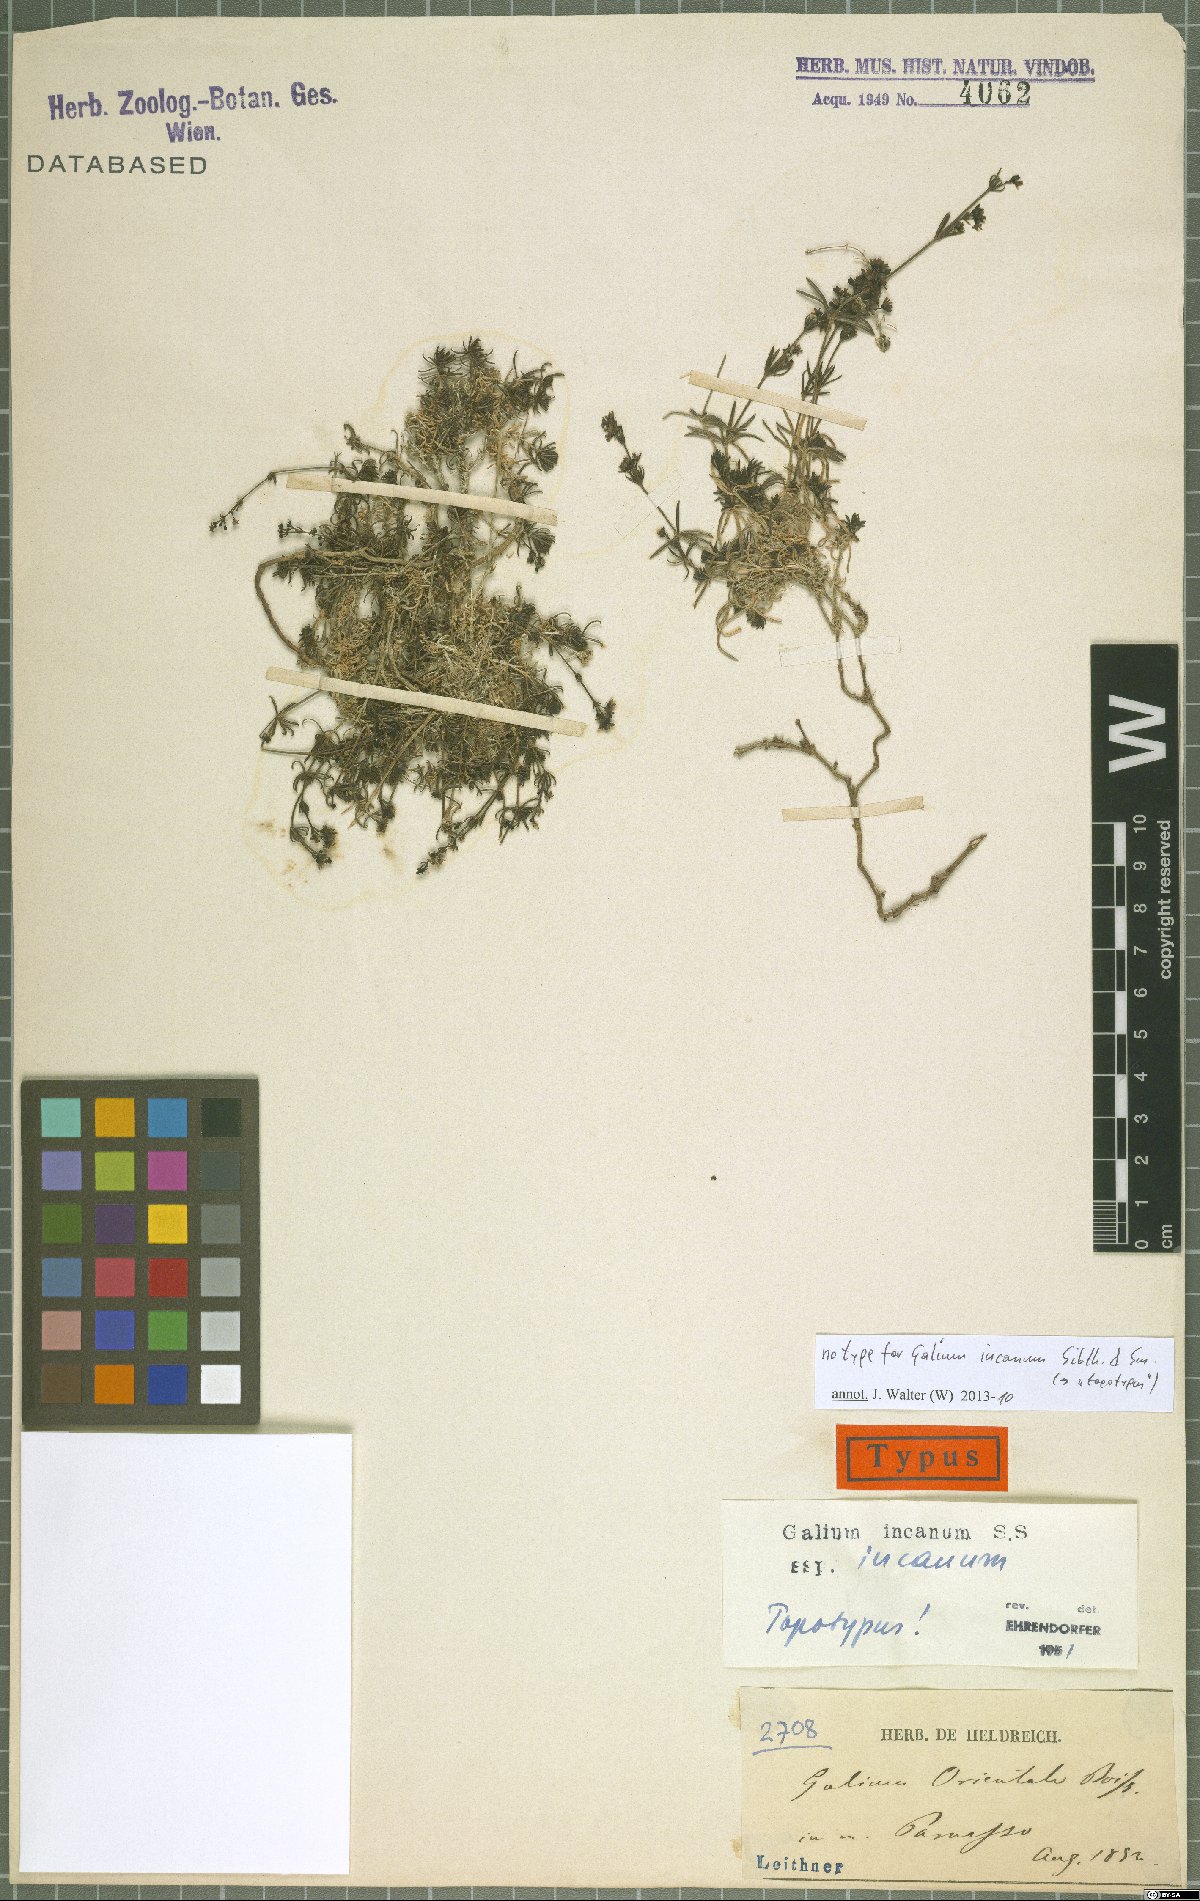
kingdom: Plantae
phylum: Tracheophyta
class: Magnoliopsida
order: Gentianales
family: Rubiaceae
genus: Galium
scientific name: Galium incanum
